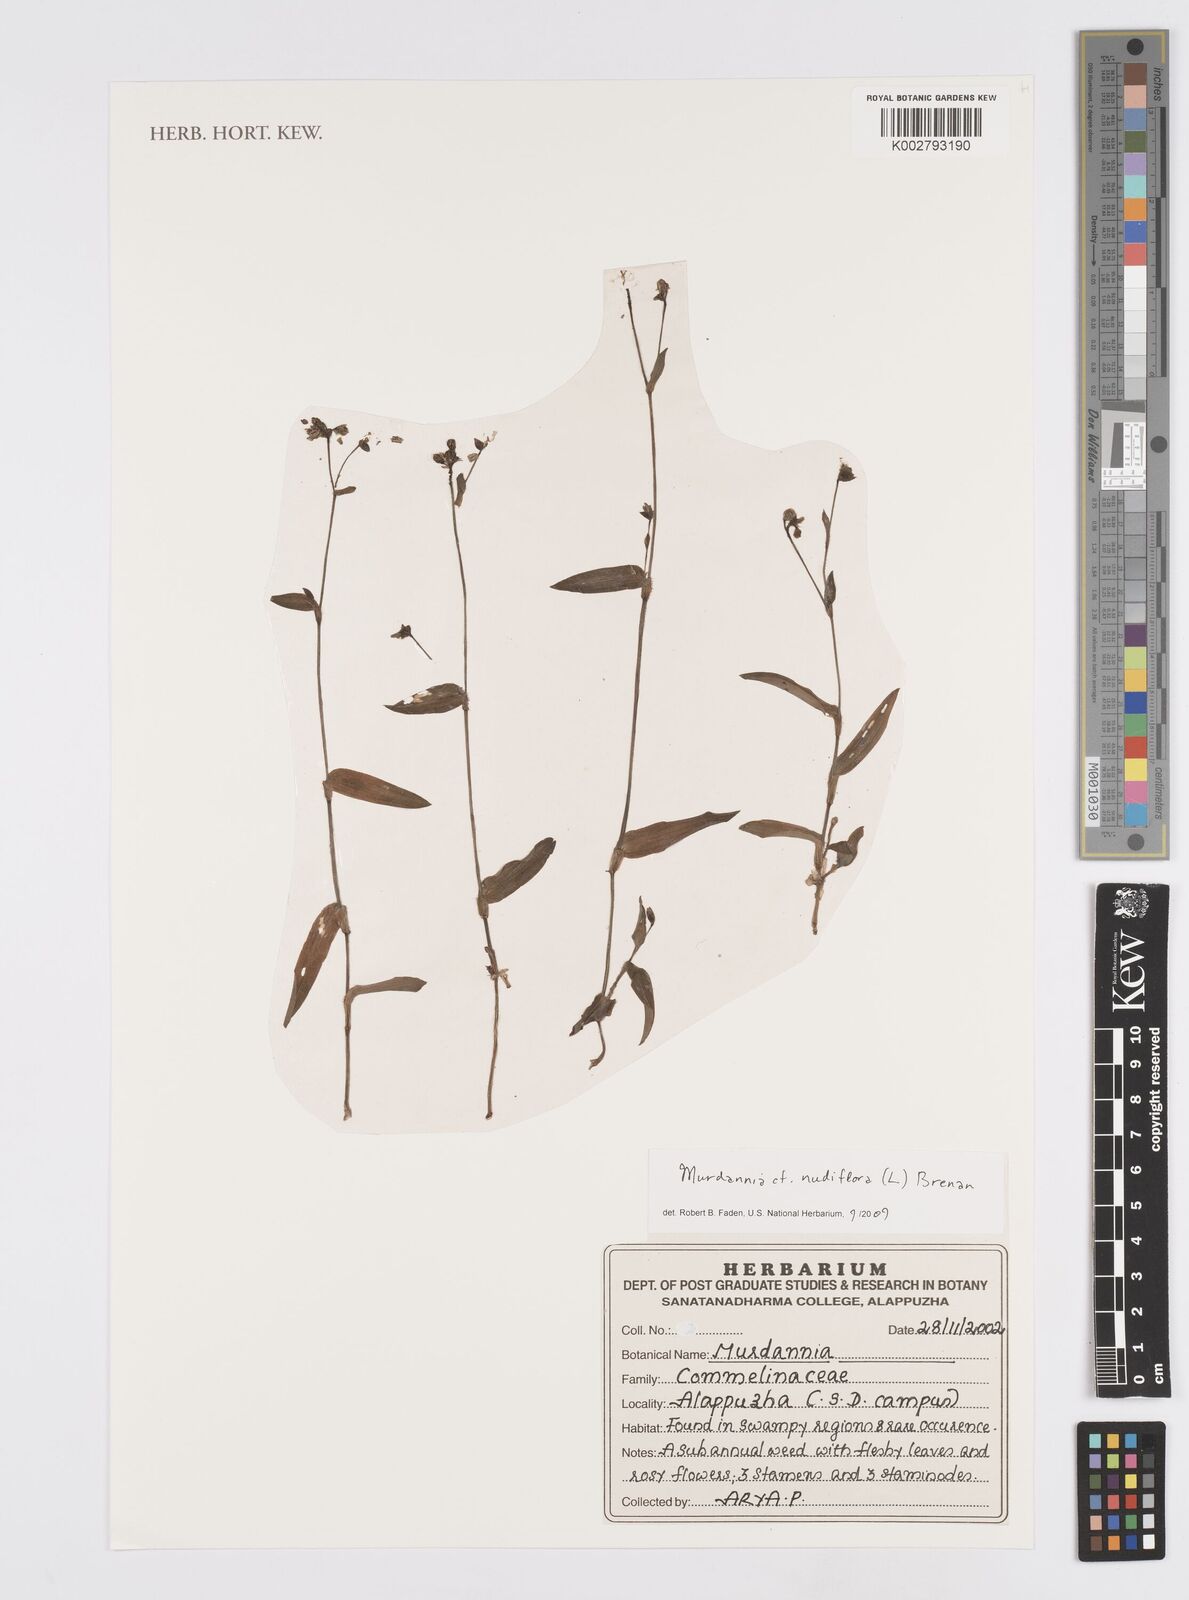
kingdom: Plantae
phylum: Tracheophyta
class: Liliopsida
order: Commelinales
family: Commelinaceae
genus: Murdannia
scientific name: Murdannia nudiflora
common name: Nakedstem dewflower
